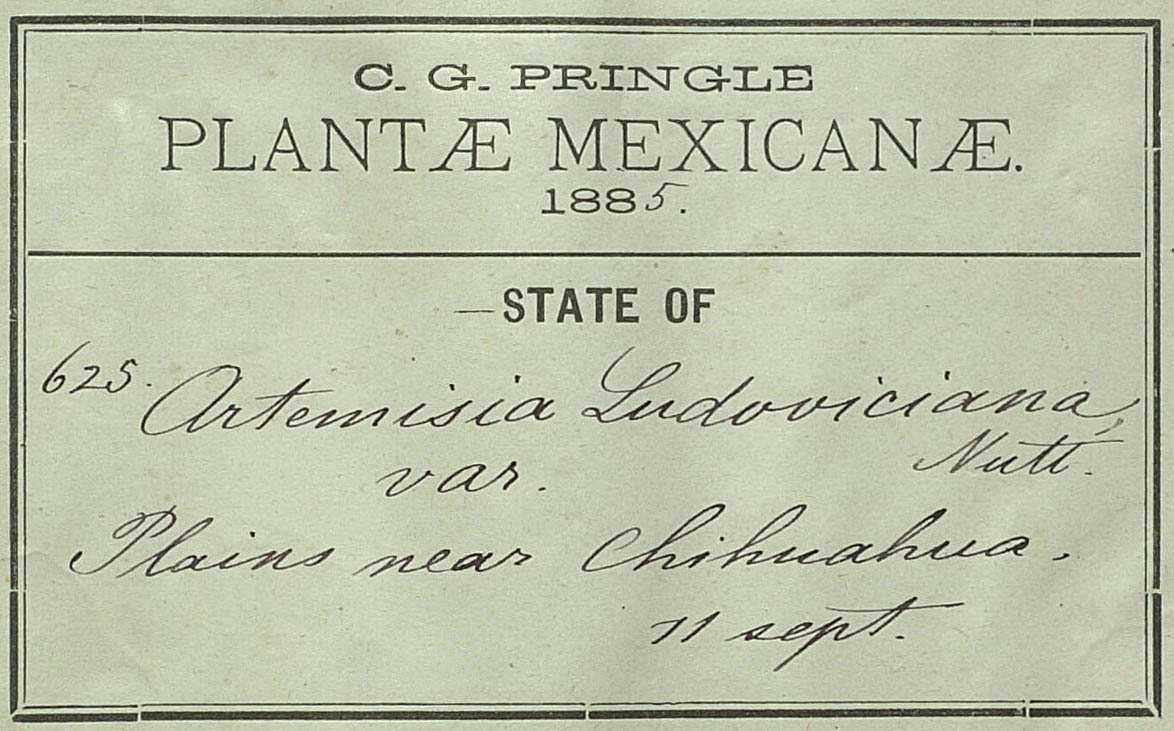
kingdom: Plantae
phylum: Tracheophyta
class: Magnoliopsida
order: Asterales
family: Asteraceae
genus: Artemisia
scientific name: Artemisia pringlei
